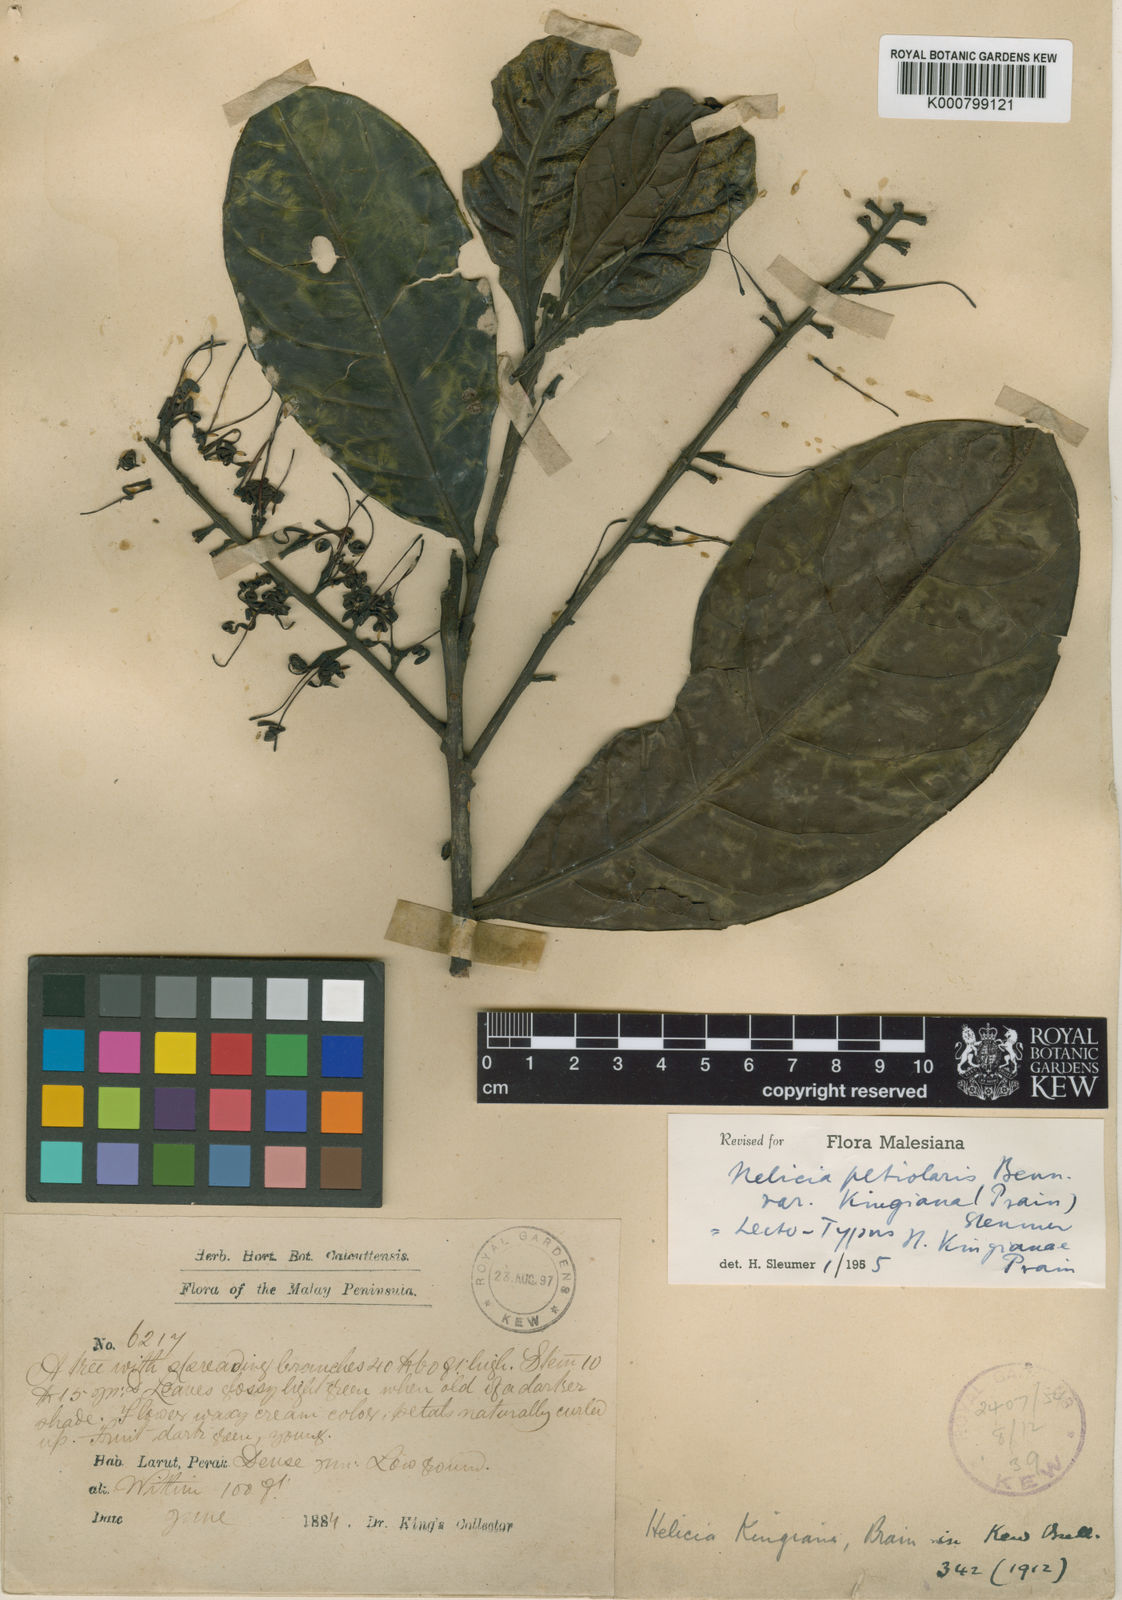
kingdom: Plantae
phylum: Tracheophyta
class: Magnoliopsida
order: Proteales
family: Proteaceae
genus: Helicia
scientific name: Helicia petiolaris
